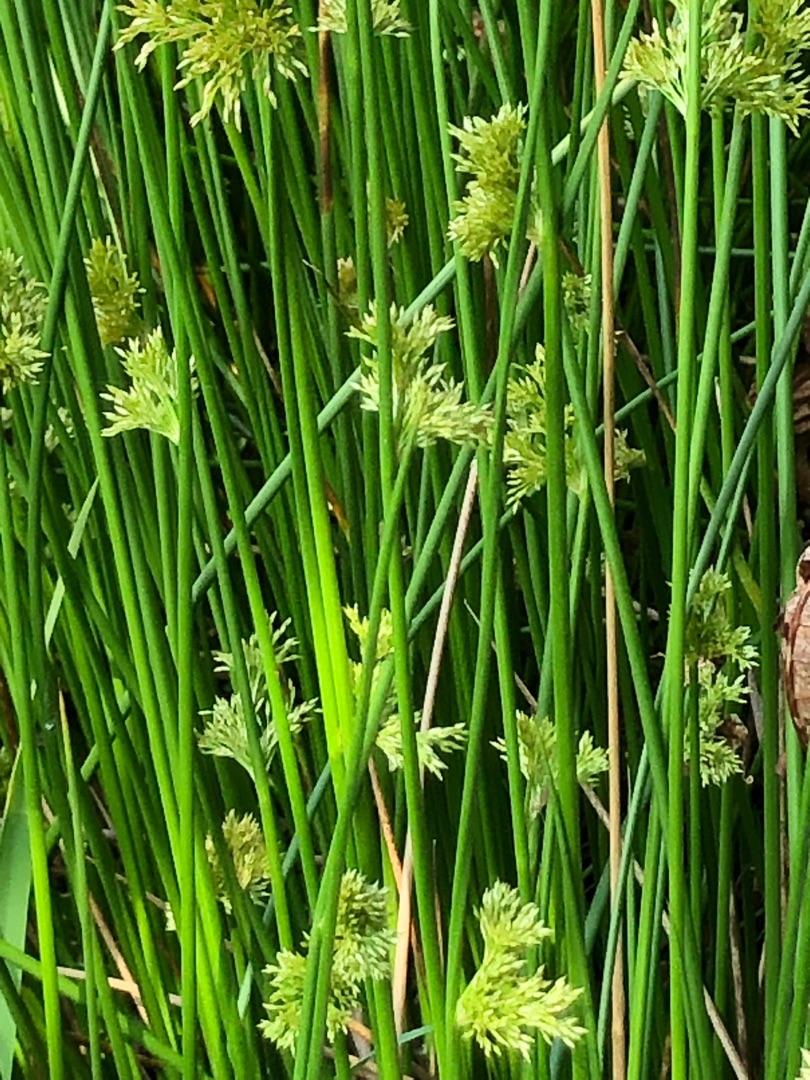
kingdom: Plantae
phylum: Tracheophyta
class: Liliopsida
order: Poales
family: Juncaceae
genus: Juncus
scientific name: Juncus effusus
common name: Lyse-siv
